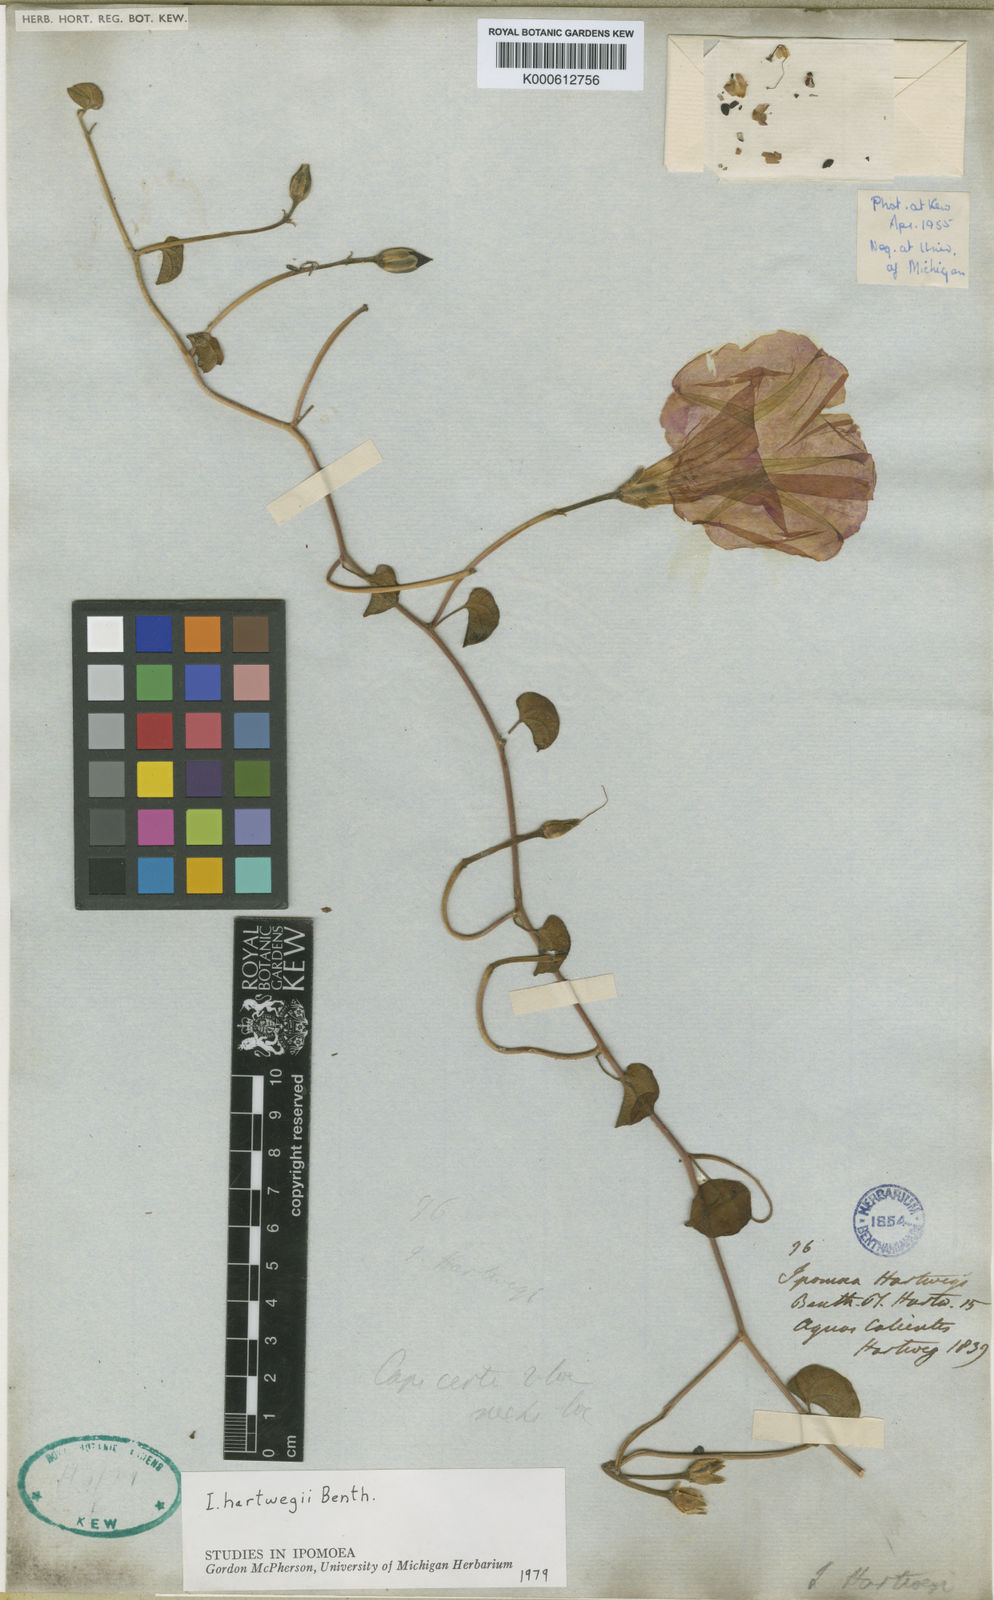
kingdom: Plantae
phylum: Tracheophyta
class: Magnoliopsida
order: Solanales
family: Convolvulaceae
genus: Ipomoea
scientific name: Ipomoea hartwegii
